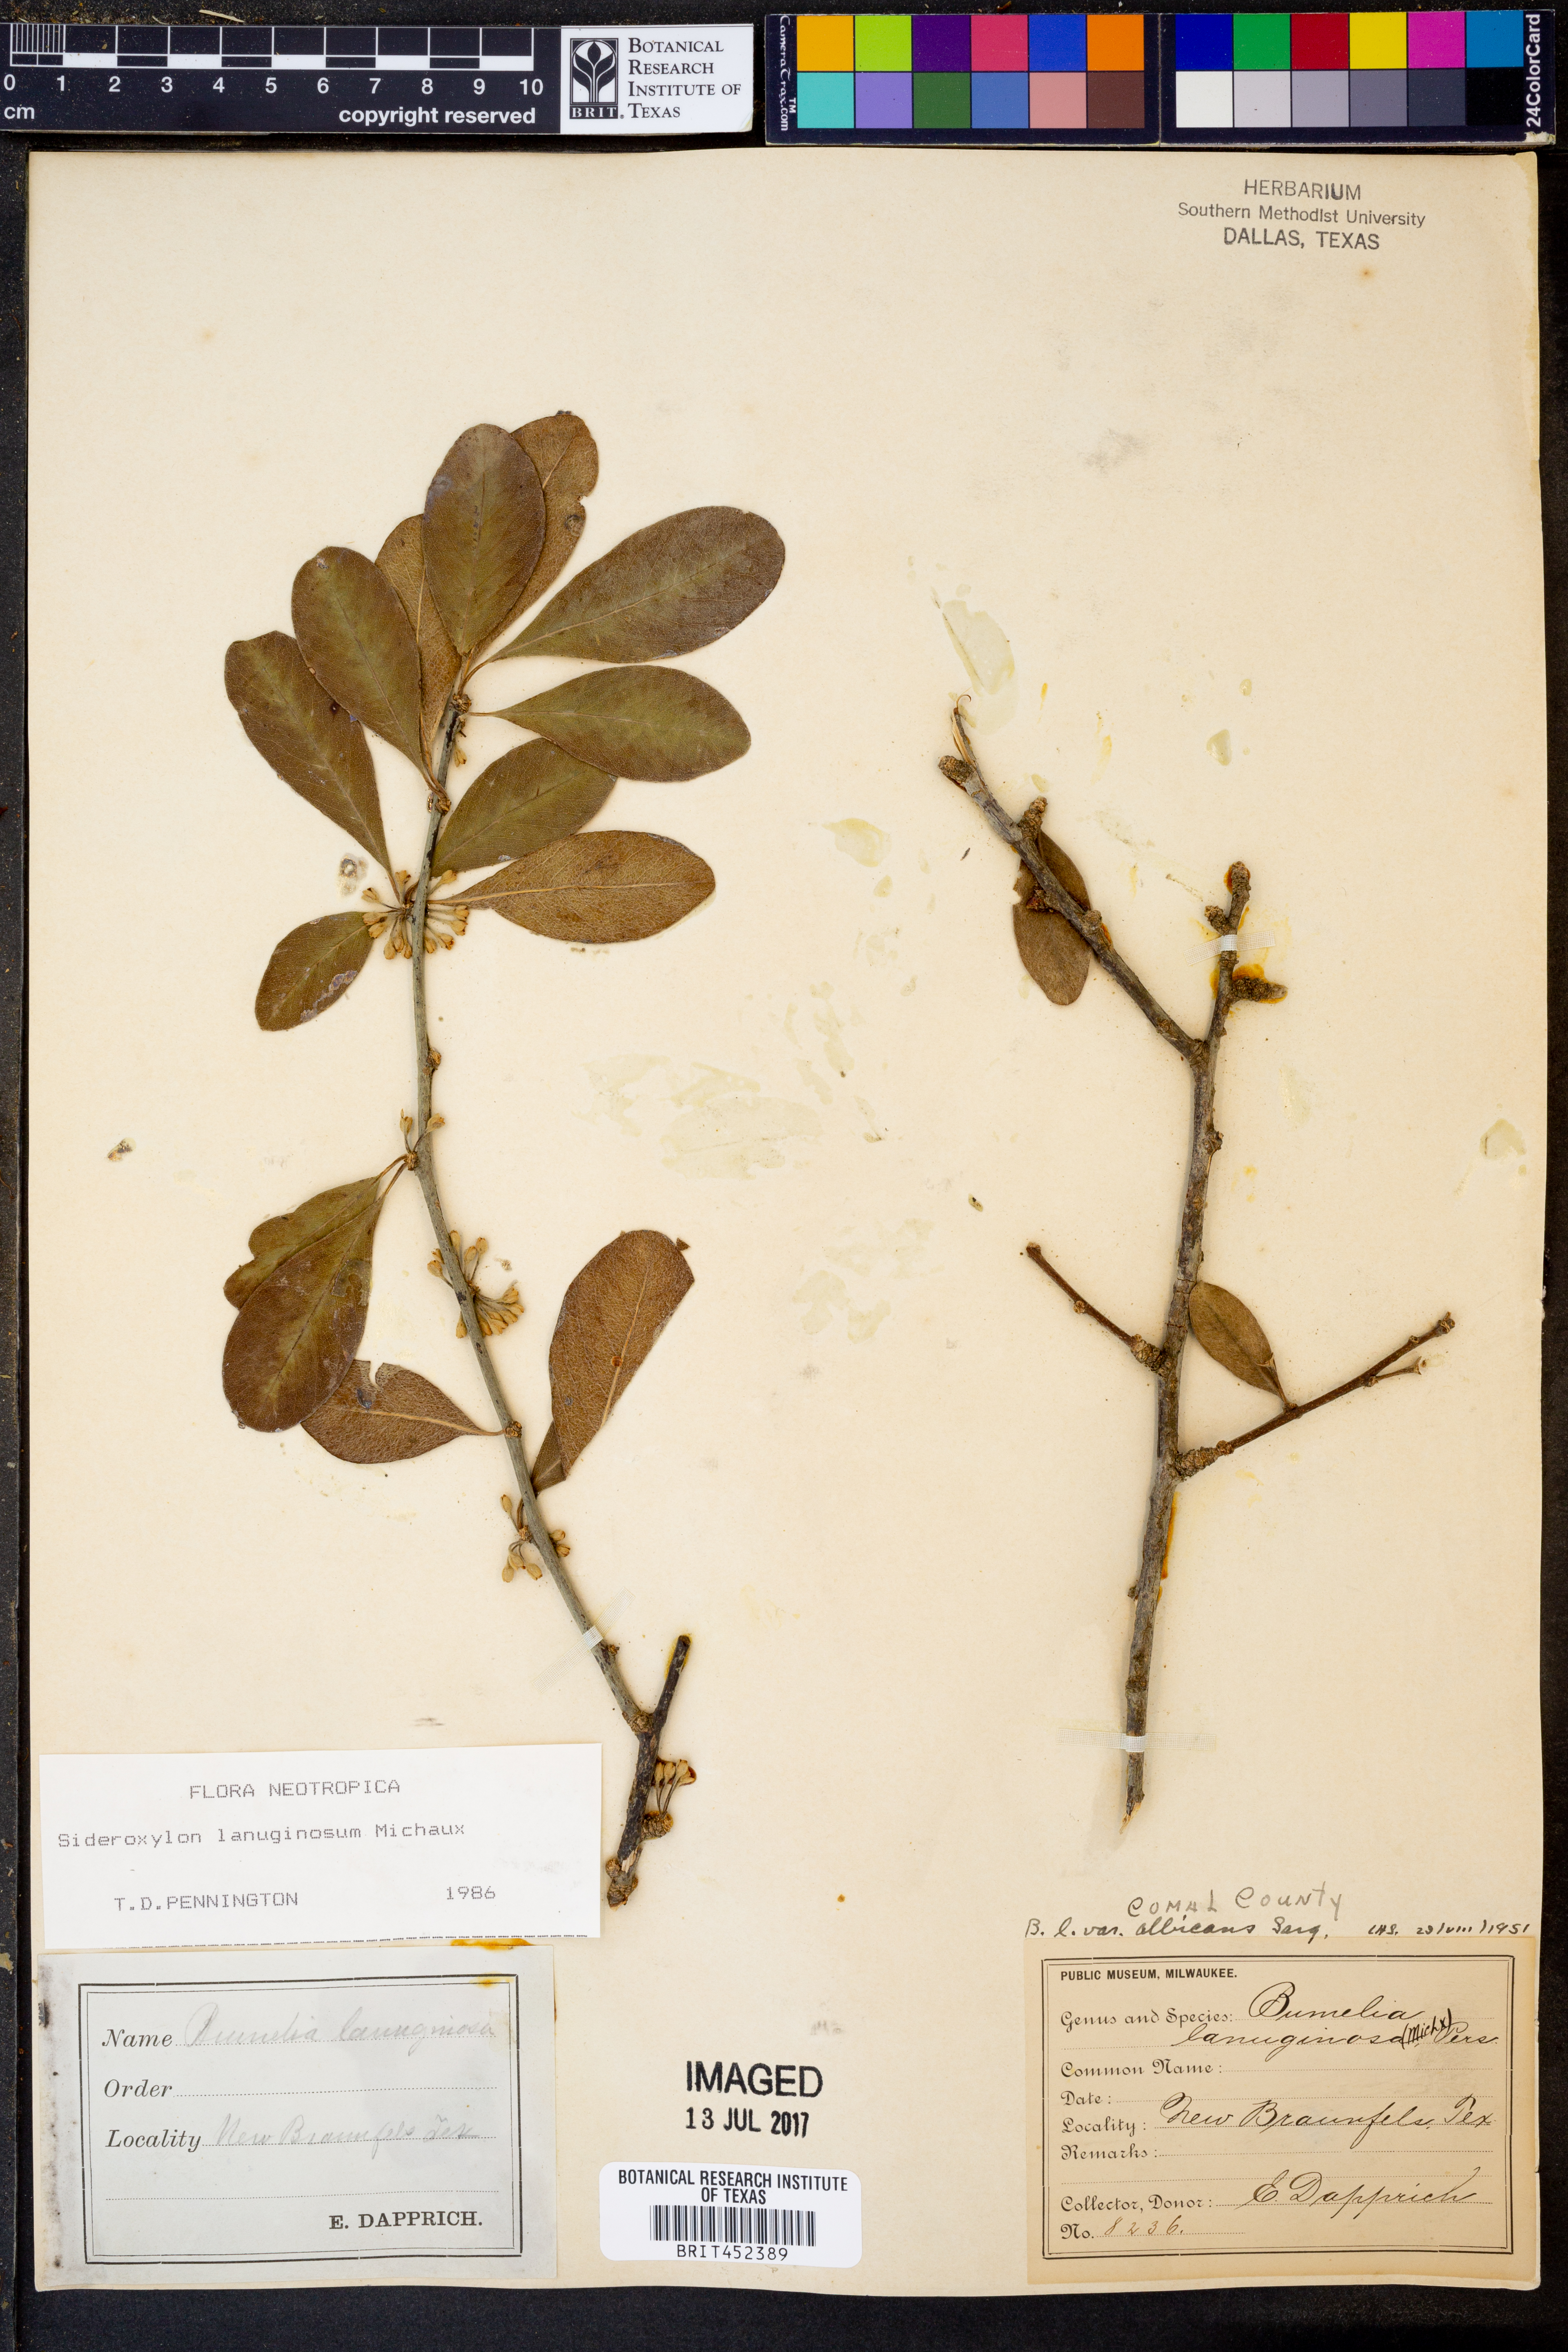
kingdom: Plantae
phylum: Tracheophyta
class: Magnoliopsida
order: Ericales
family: Sapotaceae
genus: Sideroxylon
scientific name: Sideroxylon lanuginosum
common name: Chittamwood
